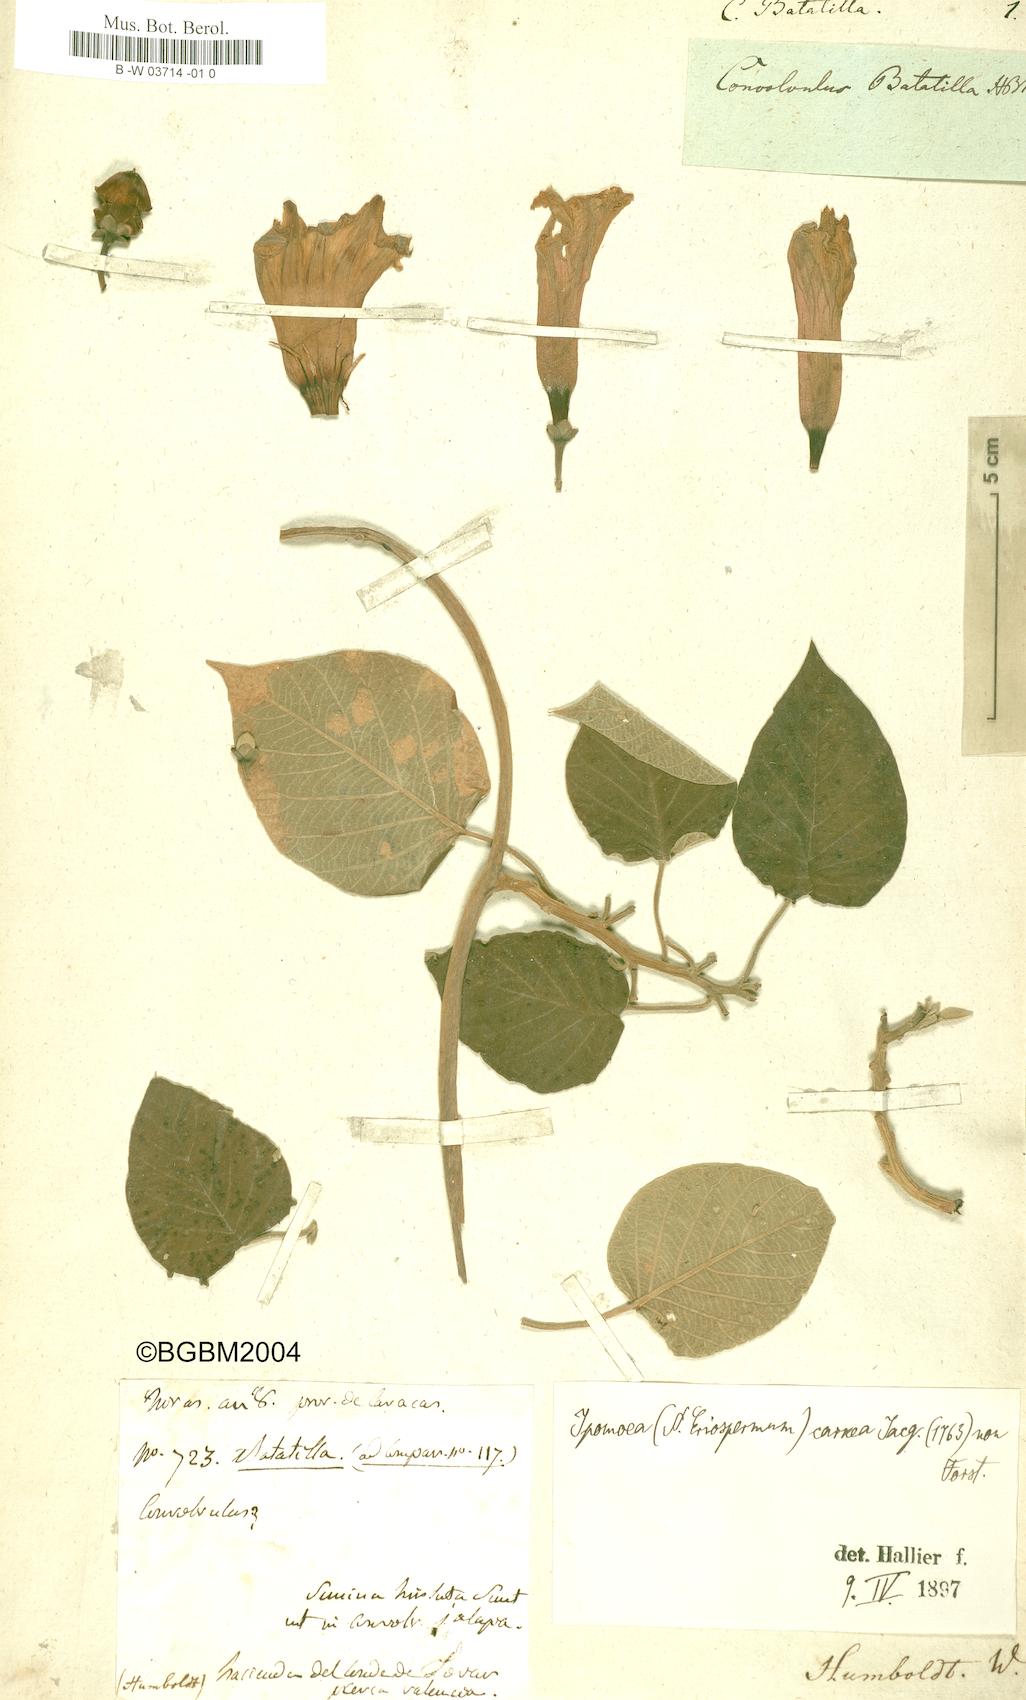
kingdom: Plantae
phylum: Tracheophyta
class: Magnoliopsida
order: Solanales
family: Convolvulaceae
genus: Ipomoea
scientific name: Ipomoea carnea
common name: Morning-glory
